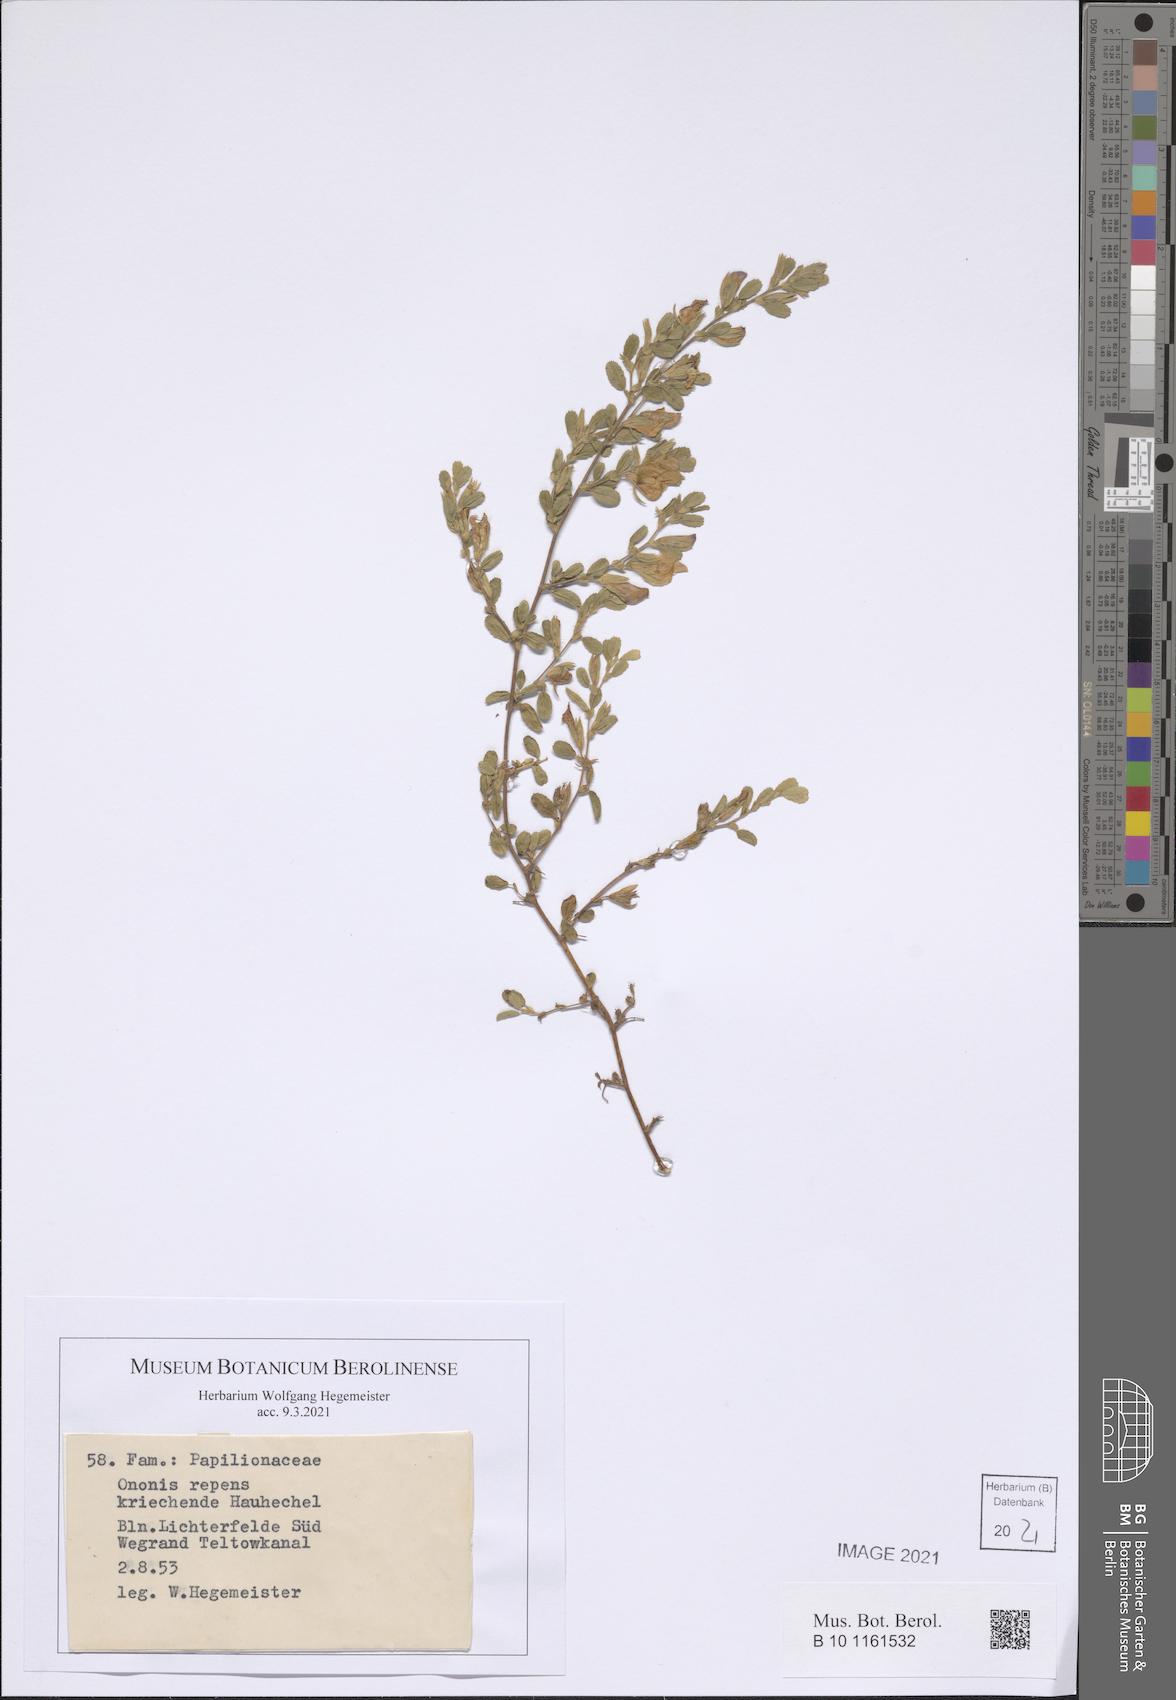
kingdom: Plantae
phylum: Tracheophyta
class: Magnoliopsida
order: Fabales
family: Fabaceae
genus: Ononis
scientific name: Ononis spinosa
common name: Spiny restharrow
